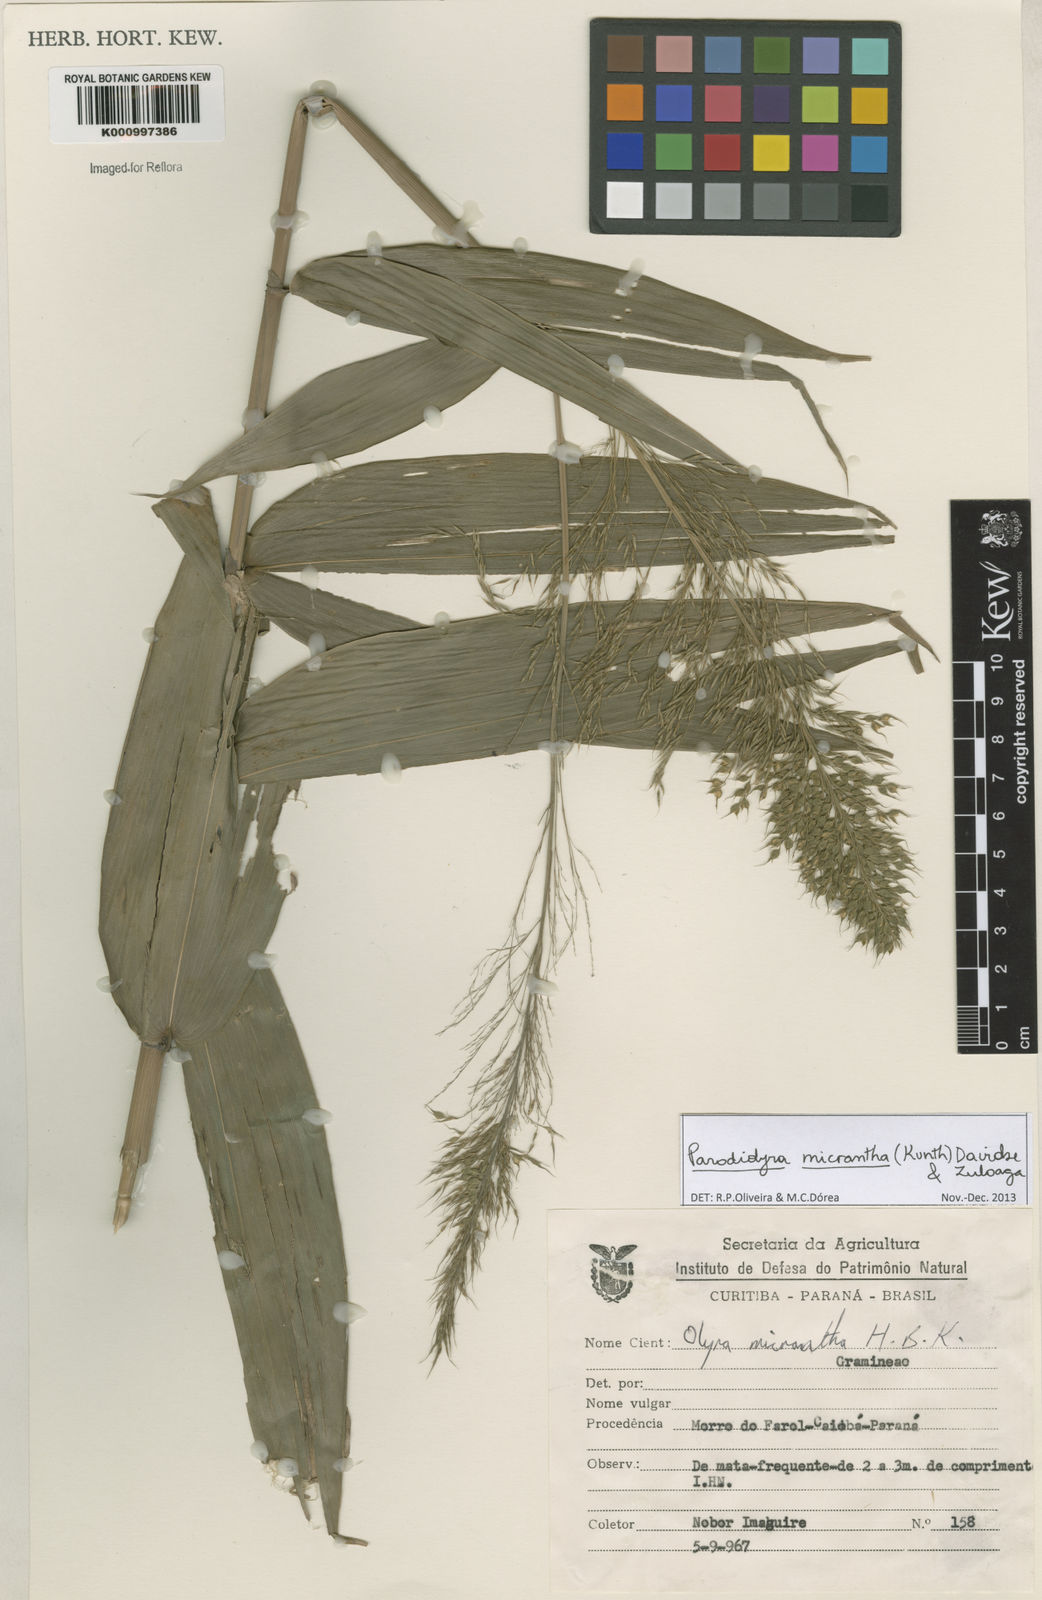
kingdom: Plantae
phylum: Tracheophyta
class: Liliopsida
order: Poales
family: Poaceae
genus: Taquara
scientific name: Taquara micrantha
